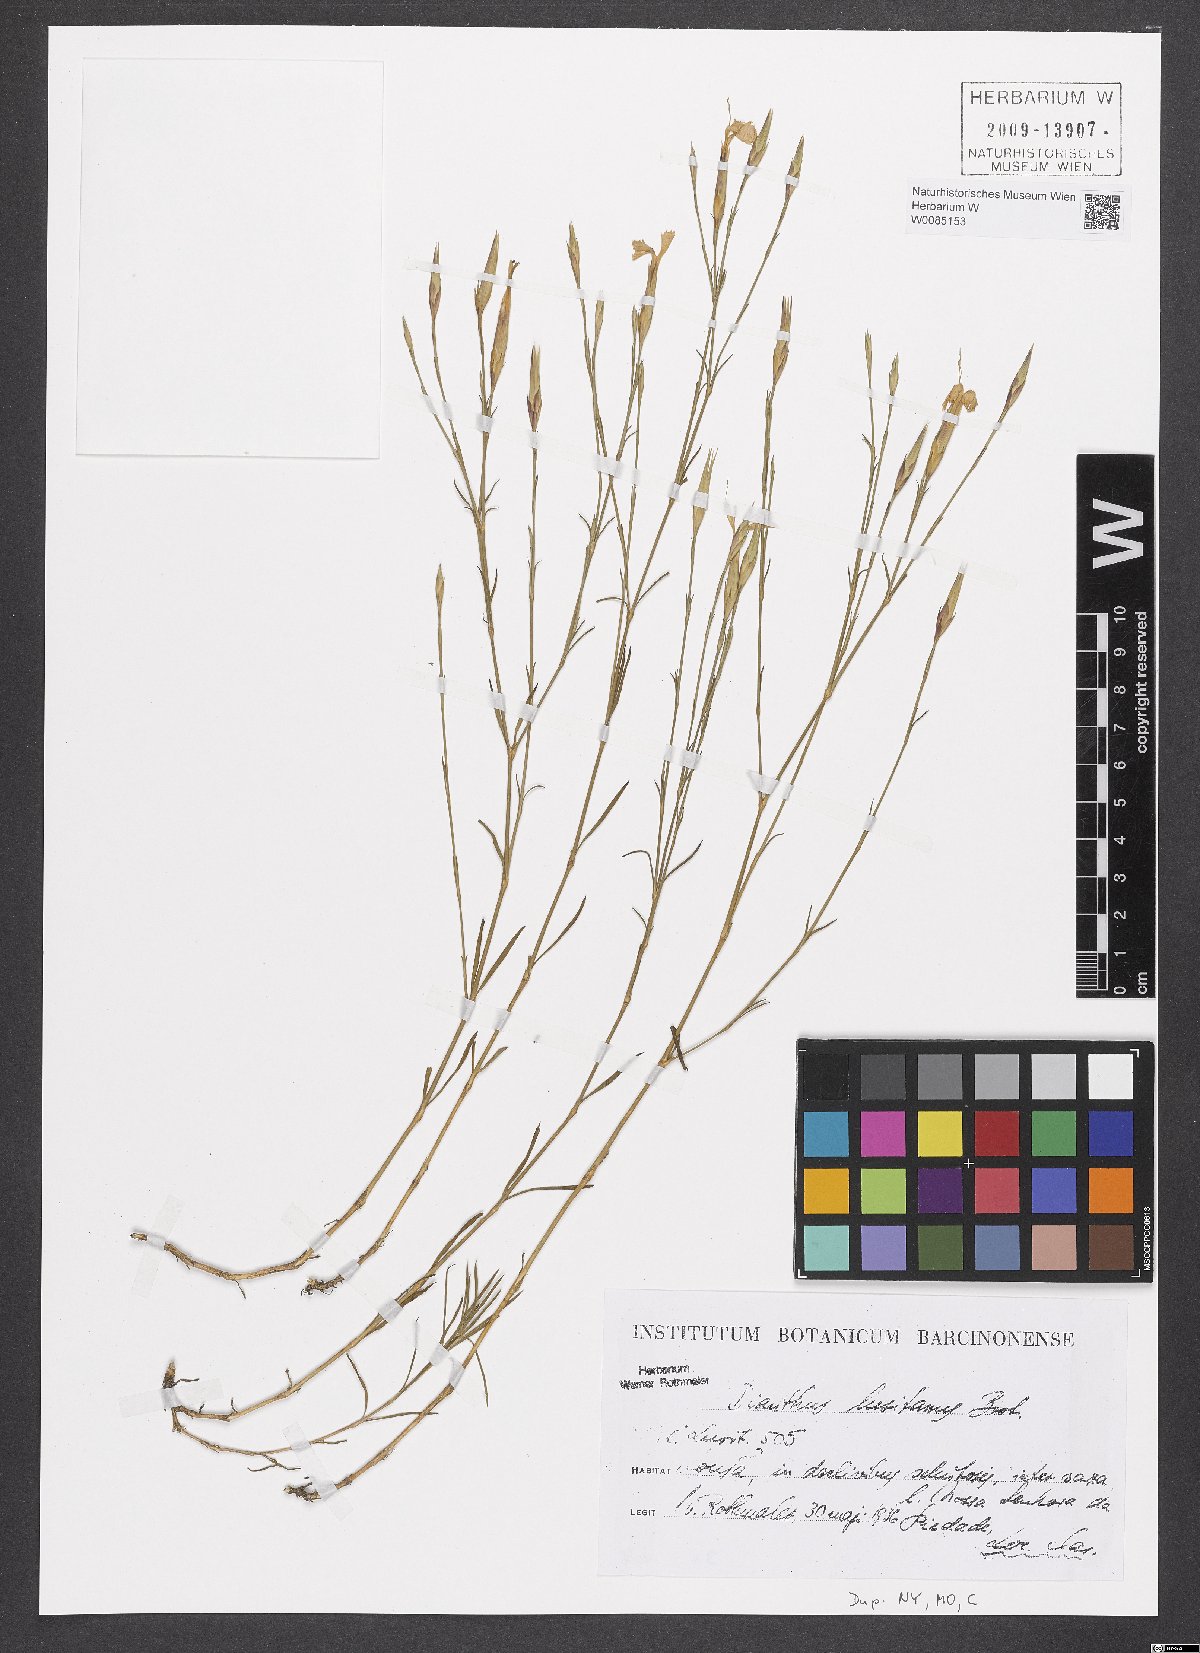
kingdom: Plantae
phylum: Tracheophyta
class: Magnoliopsida
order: Caryophyllales
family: Caryophyllaceae
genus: Dianthus
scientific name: Dianthus lusitanus
